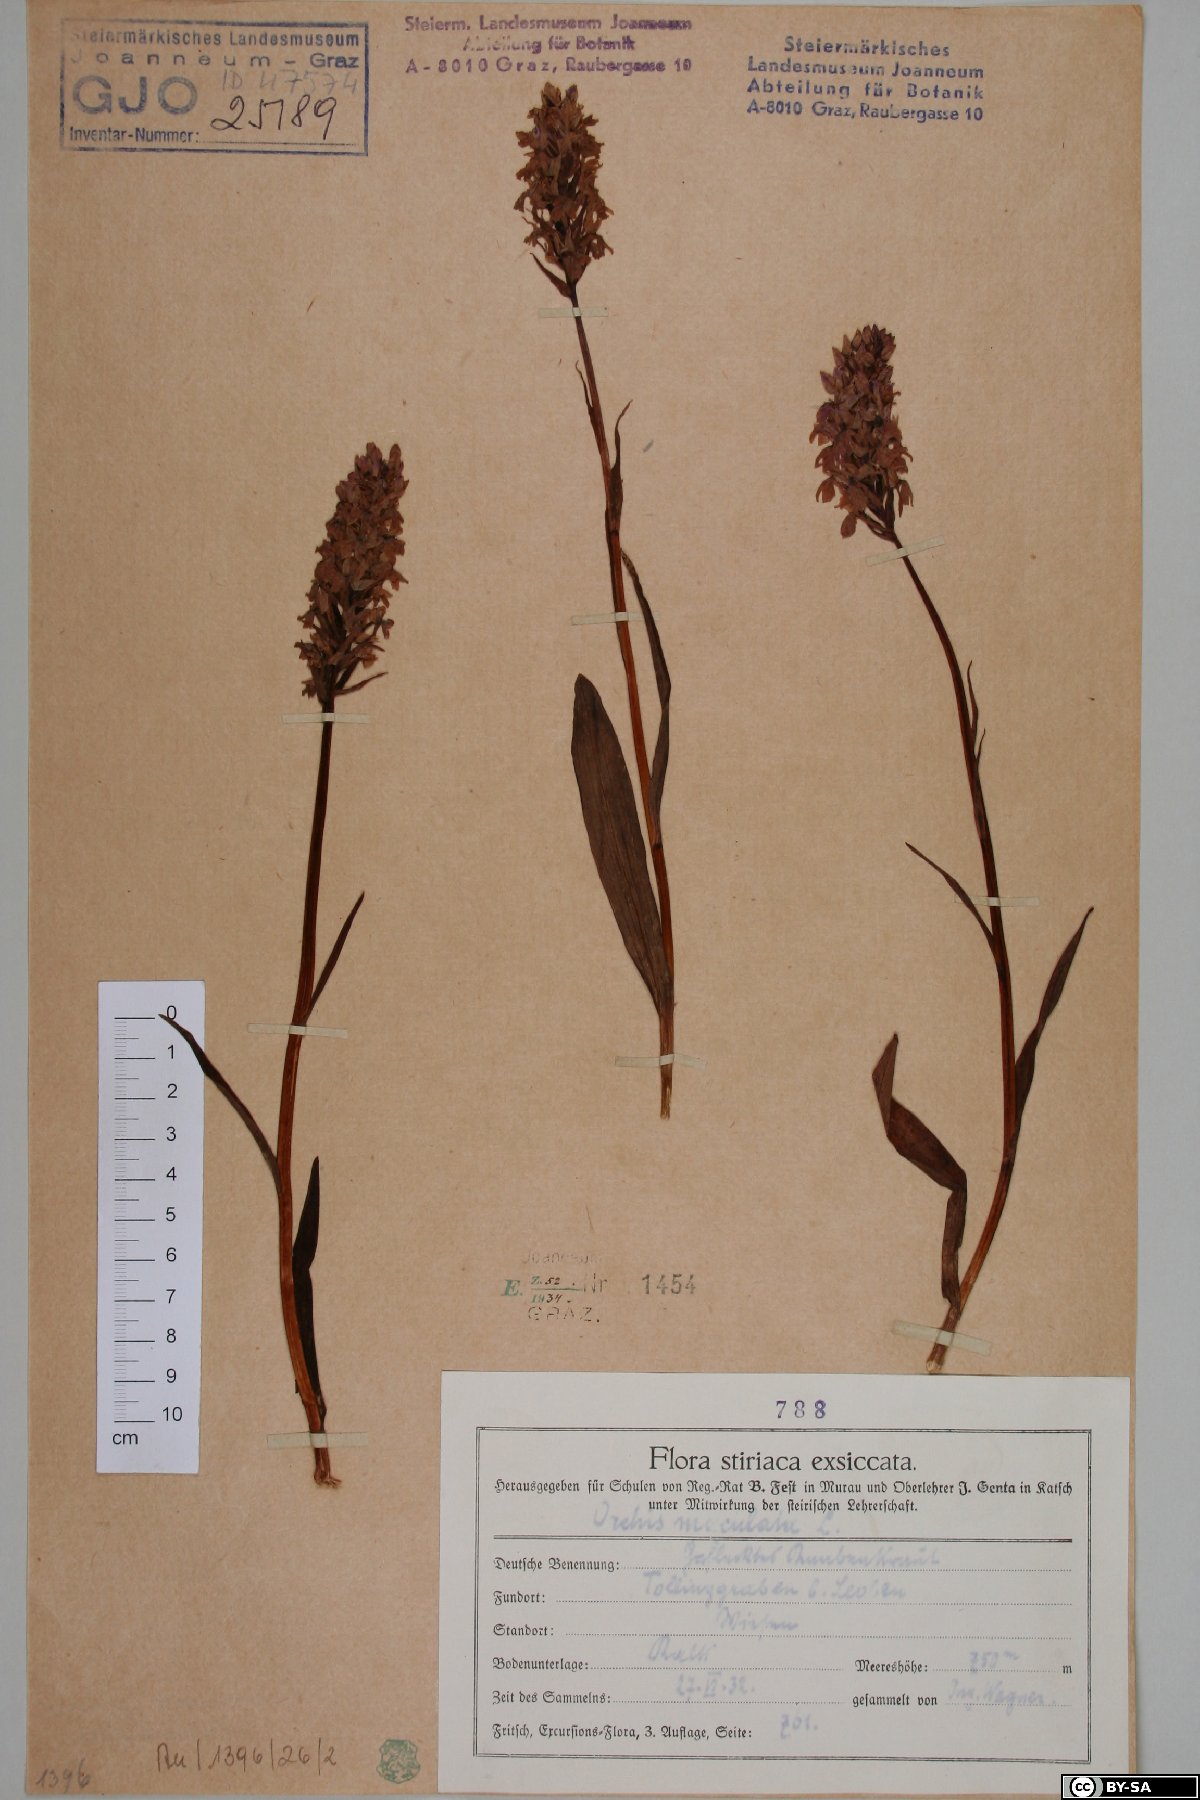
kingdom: Plantae
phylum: Tracheophyta
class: Liliopsida
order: Asparagales
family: Orchidaceae
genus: Dactylorhiza
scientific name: Dactylorhiza maculata
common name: Heath spotted-orchid
